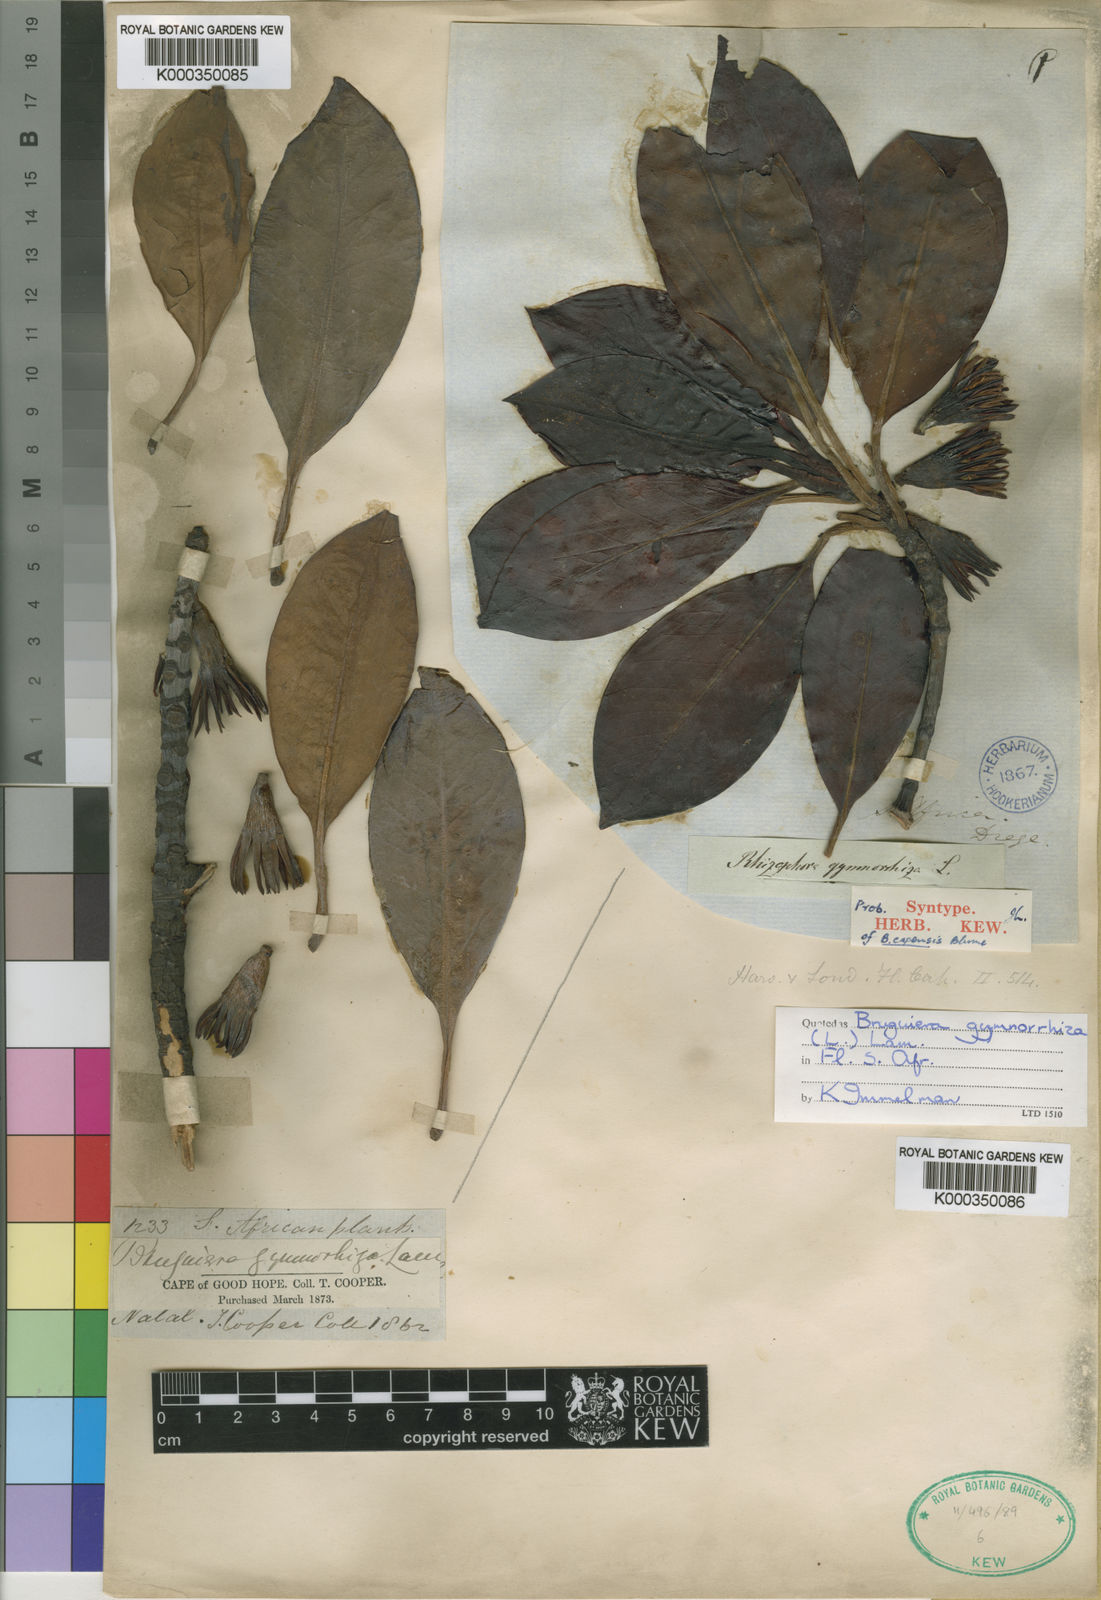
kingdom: Plantae
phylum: Tracheophyta
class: Magnoliopsida
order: Malpighiales
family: Rhizophoraceae
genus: Bruguiera
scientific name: Bruguiera gymnorhiza
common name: Oriental mangrove
